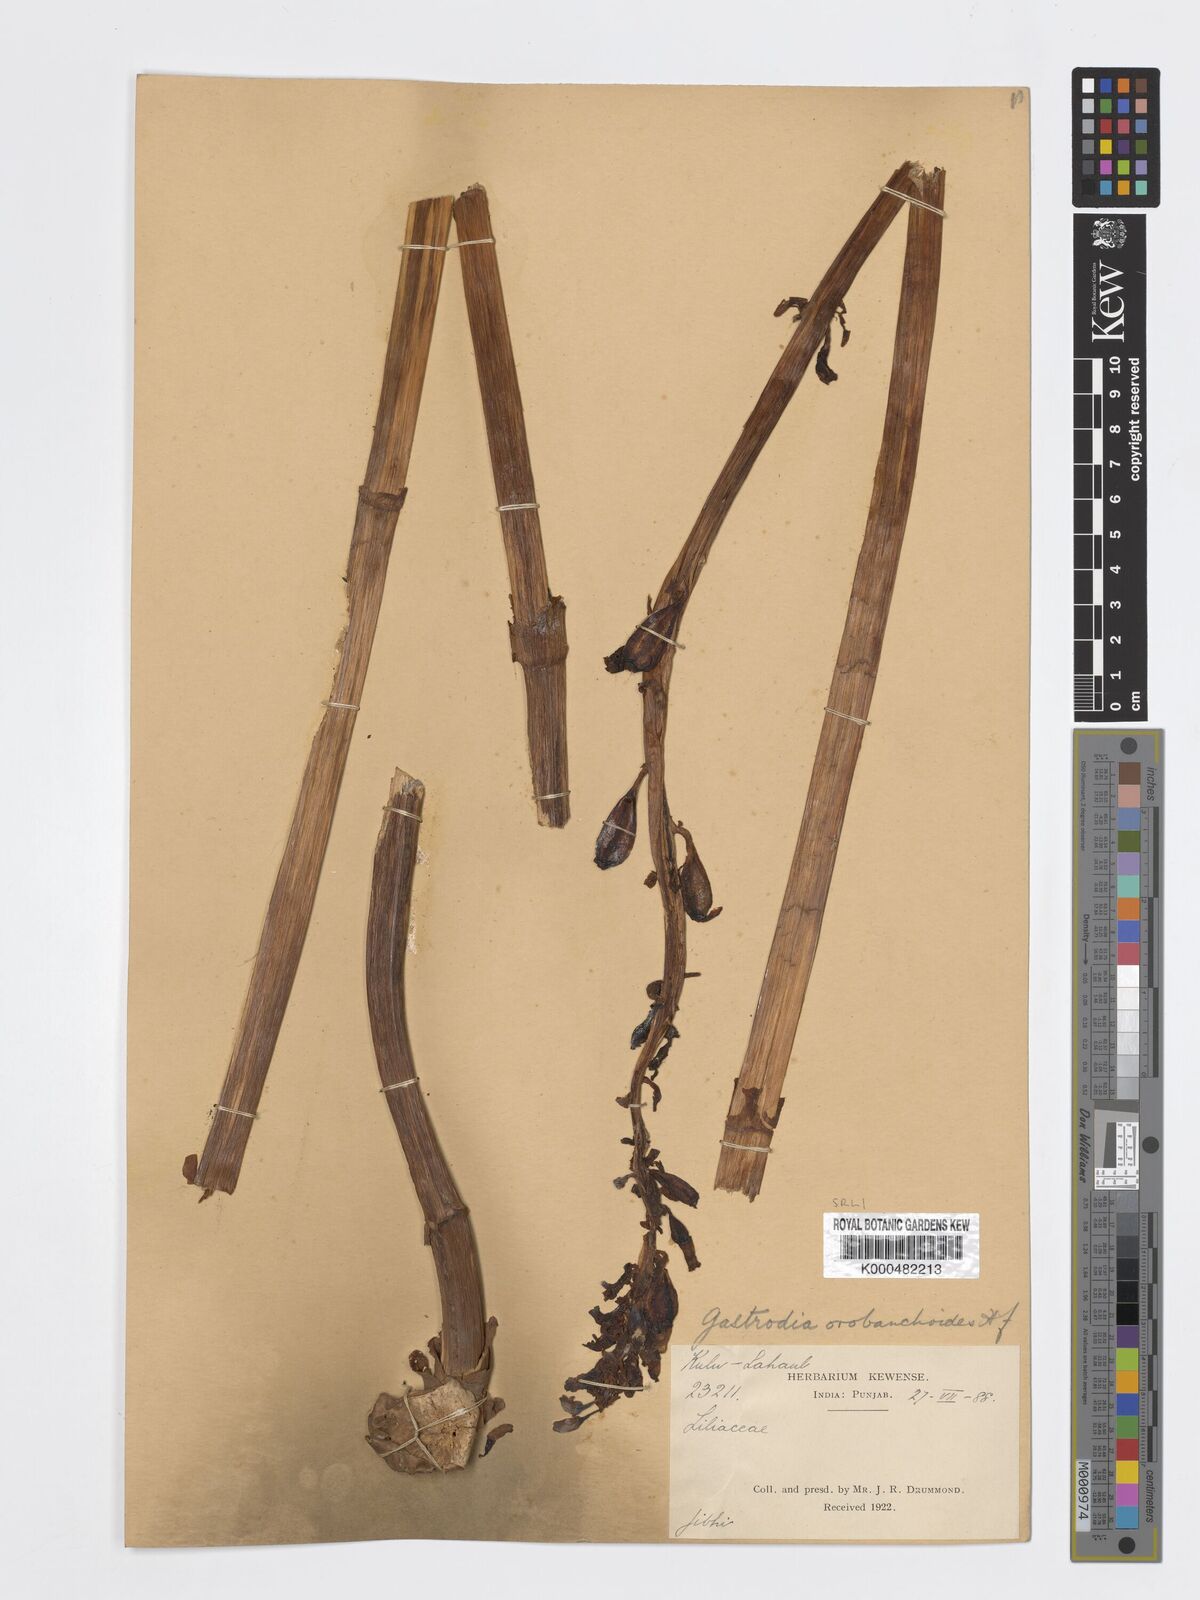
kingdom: Plantae
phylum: Tracheophyta
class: Liliopsida
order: Asparagales
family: Orchidaceae
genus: Gastrodia
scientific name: Gastrodia falconeri
